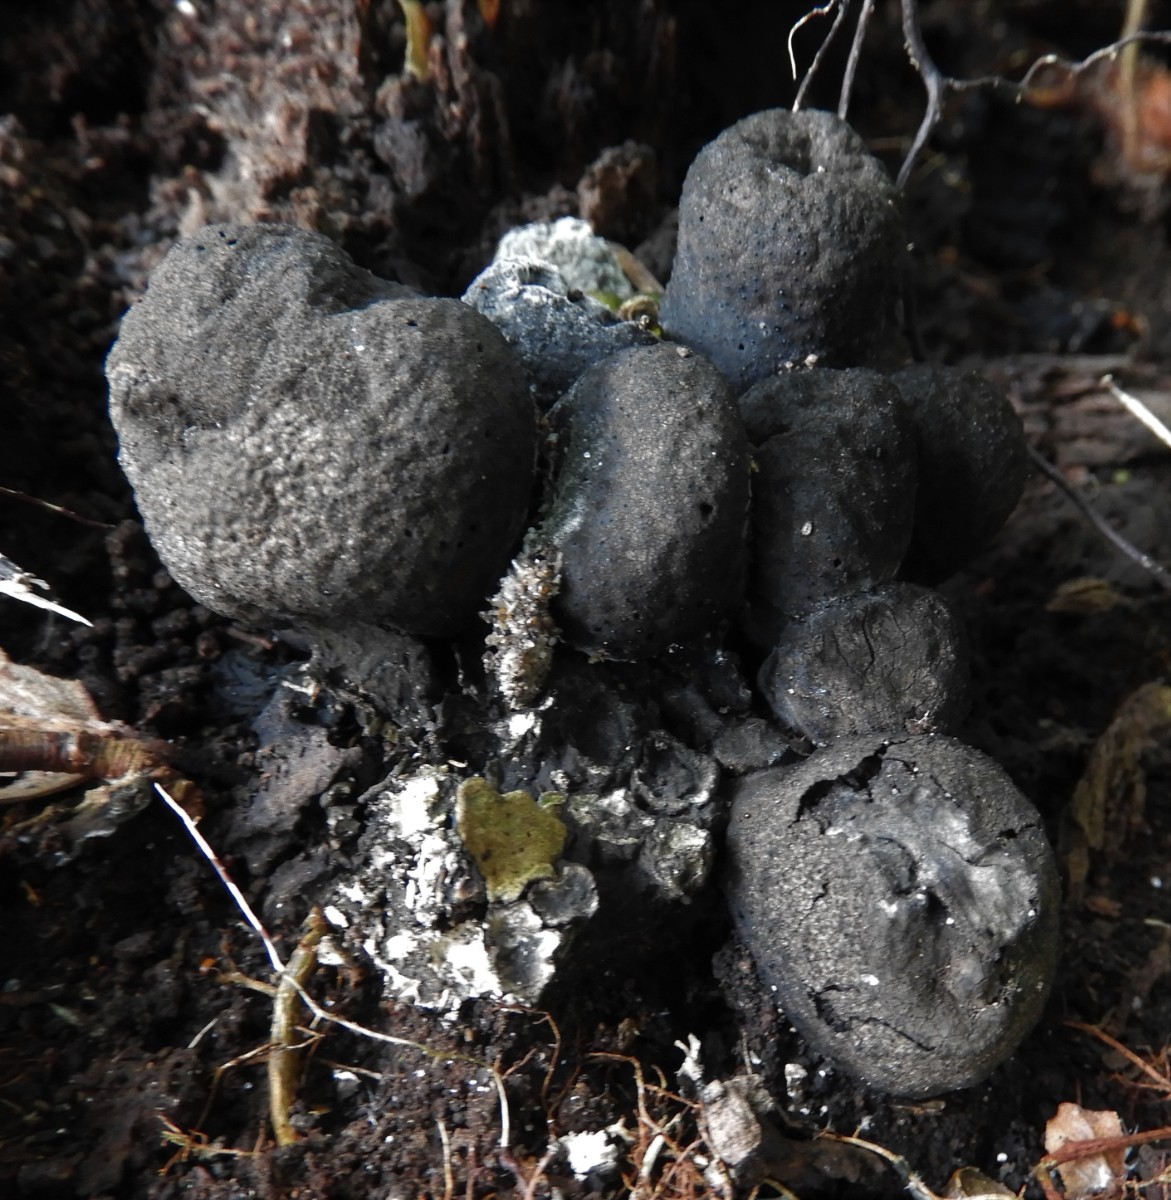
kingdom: Fungi
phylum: Ascomycota
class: Sordariomycetes
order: Xylariales
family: Xylariaceae
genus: Xylaria
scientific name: Xylaria polymorpha
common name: kølle-stødsvamp
